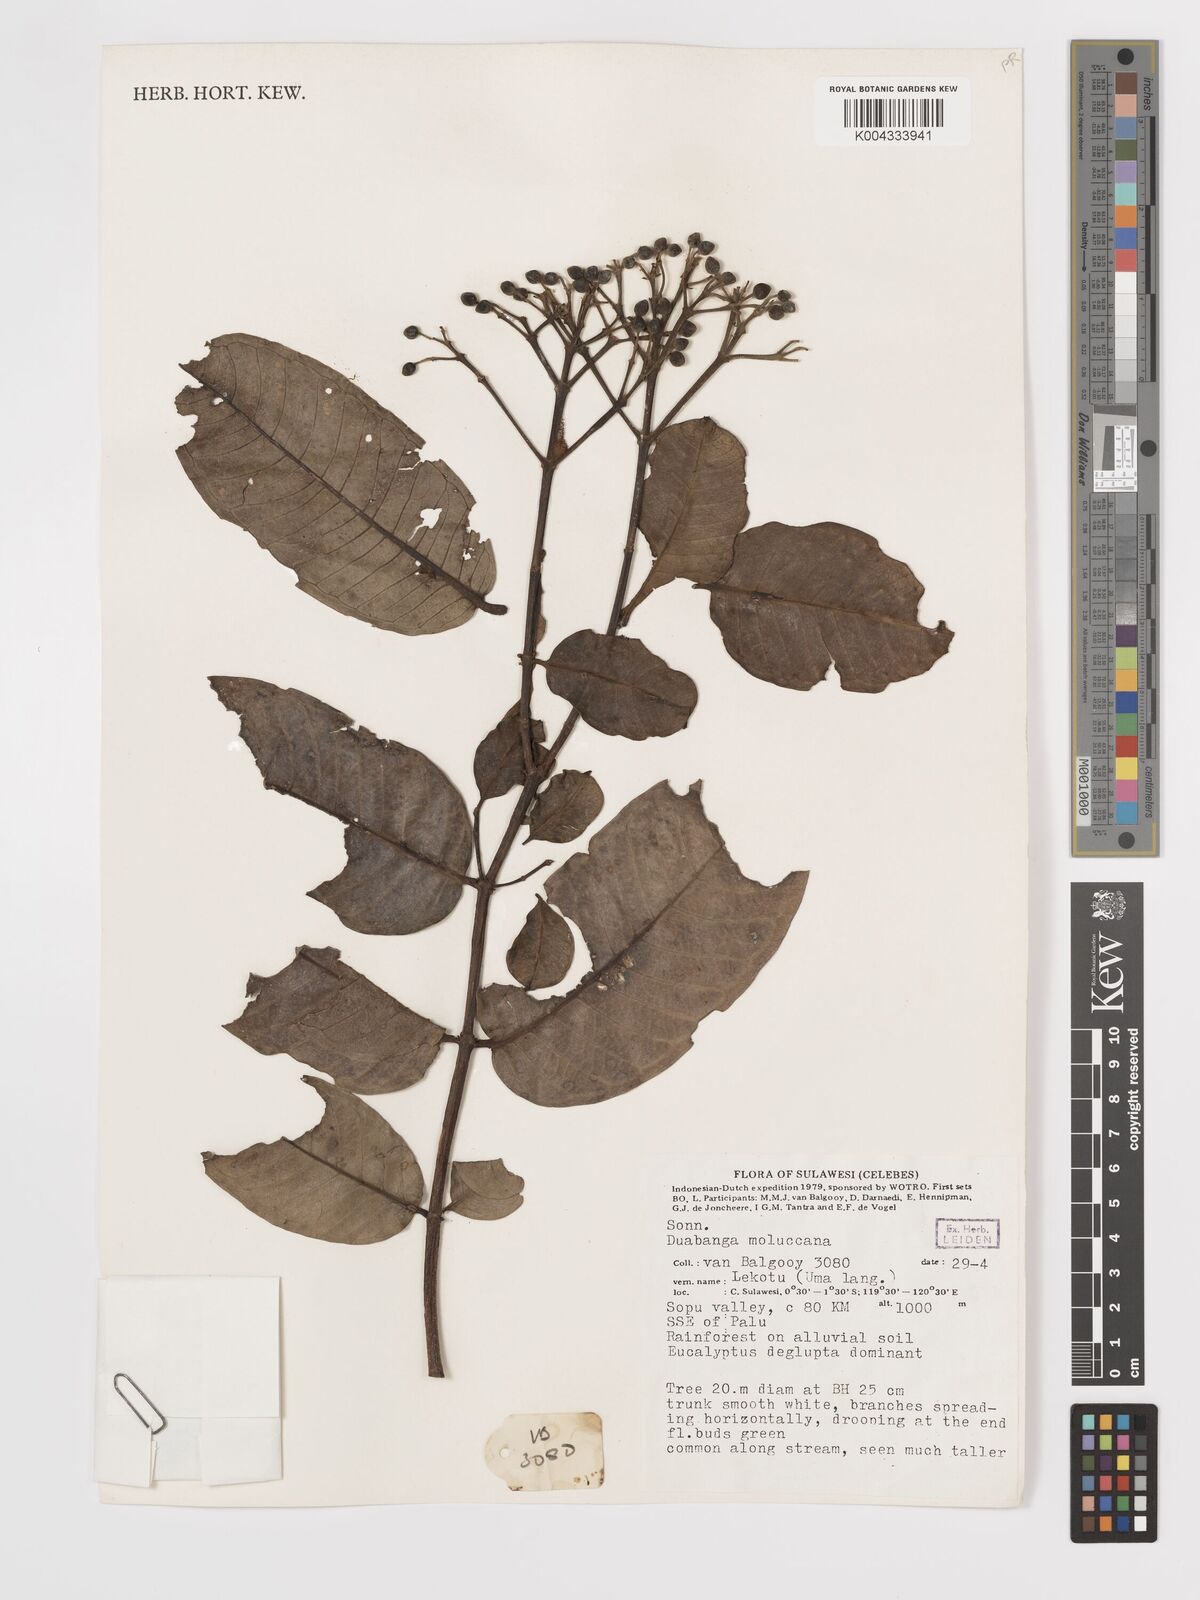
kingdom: Plantae
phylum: Tracheophyta
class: Magnoliopsida
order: Myrtales
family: Lythraceae
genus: Duabanga
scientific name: Duabanga moluccana
